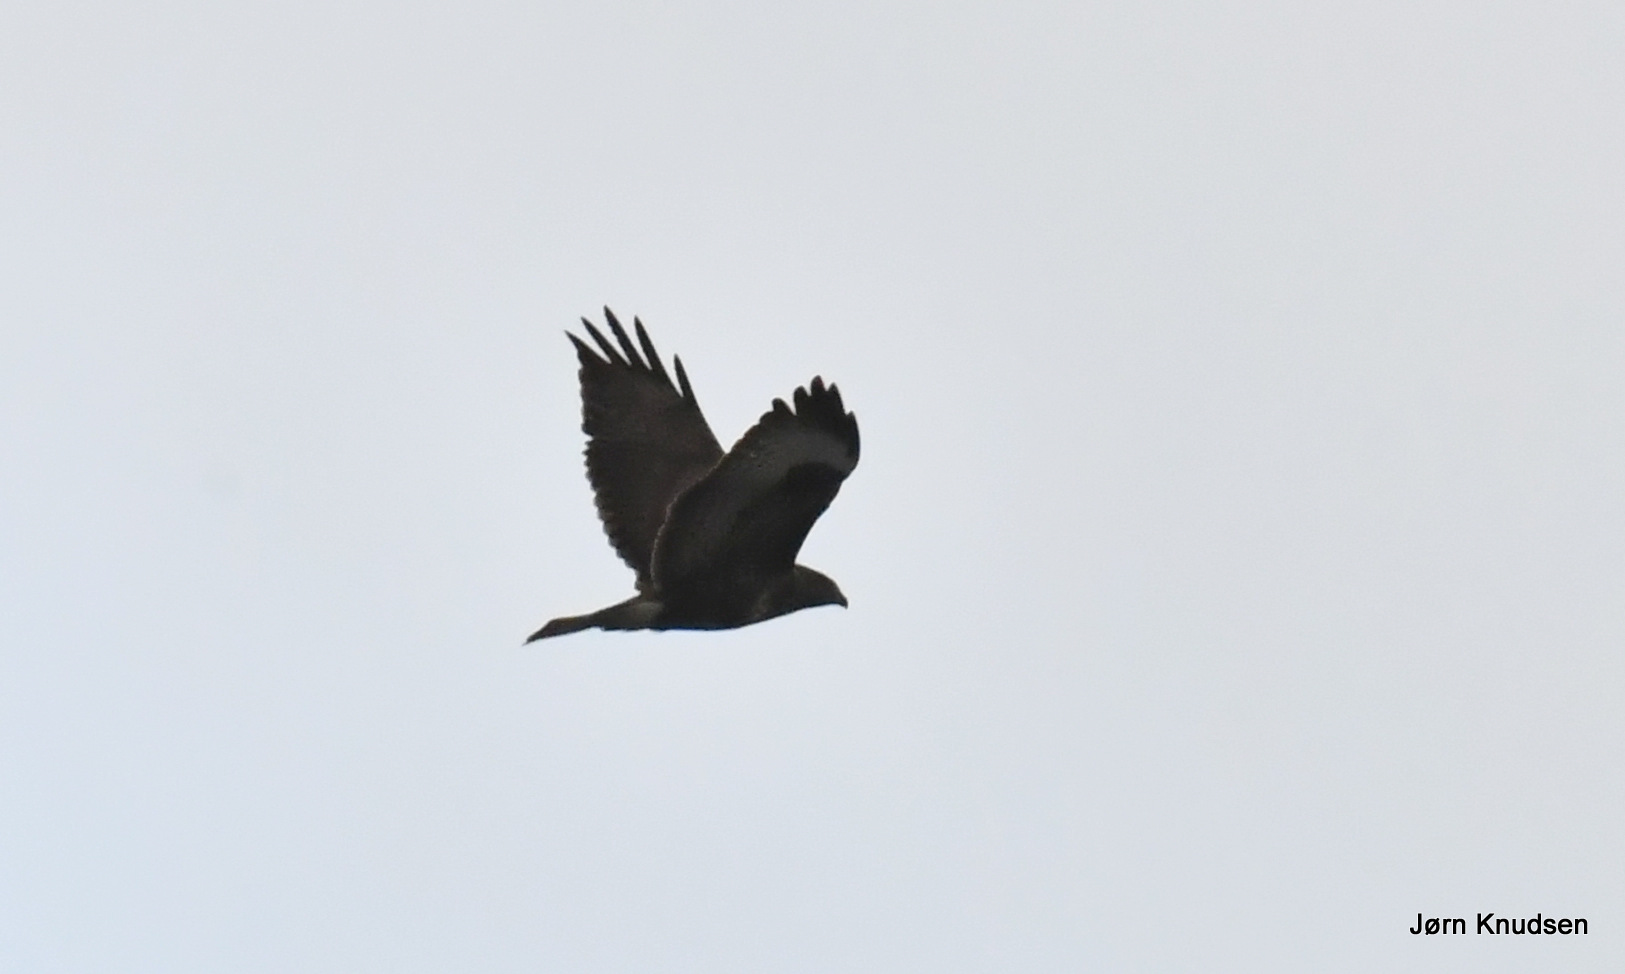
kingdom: Animalia
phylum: Chordata
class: Aves
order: Accipitriformes
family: Accipitridae
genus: Buteo
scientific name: Buteo buteo
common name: Musvåge
